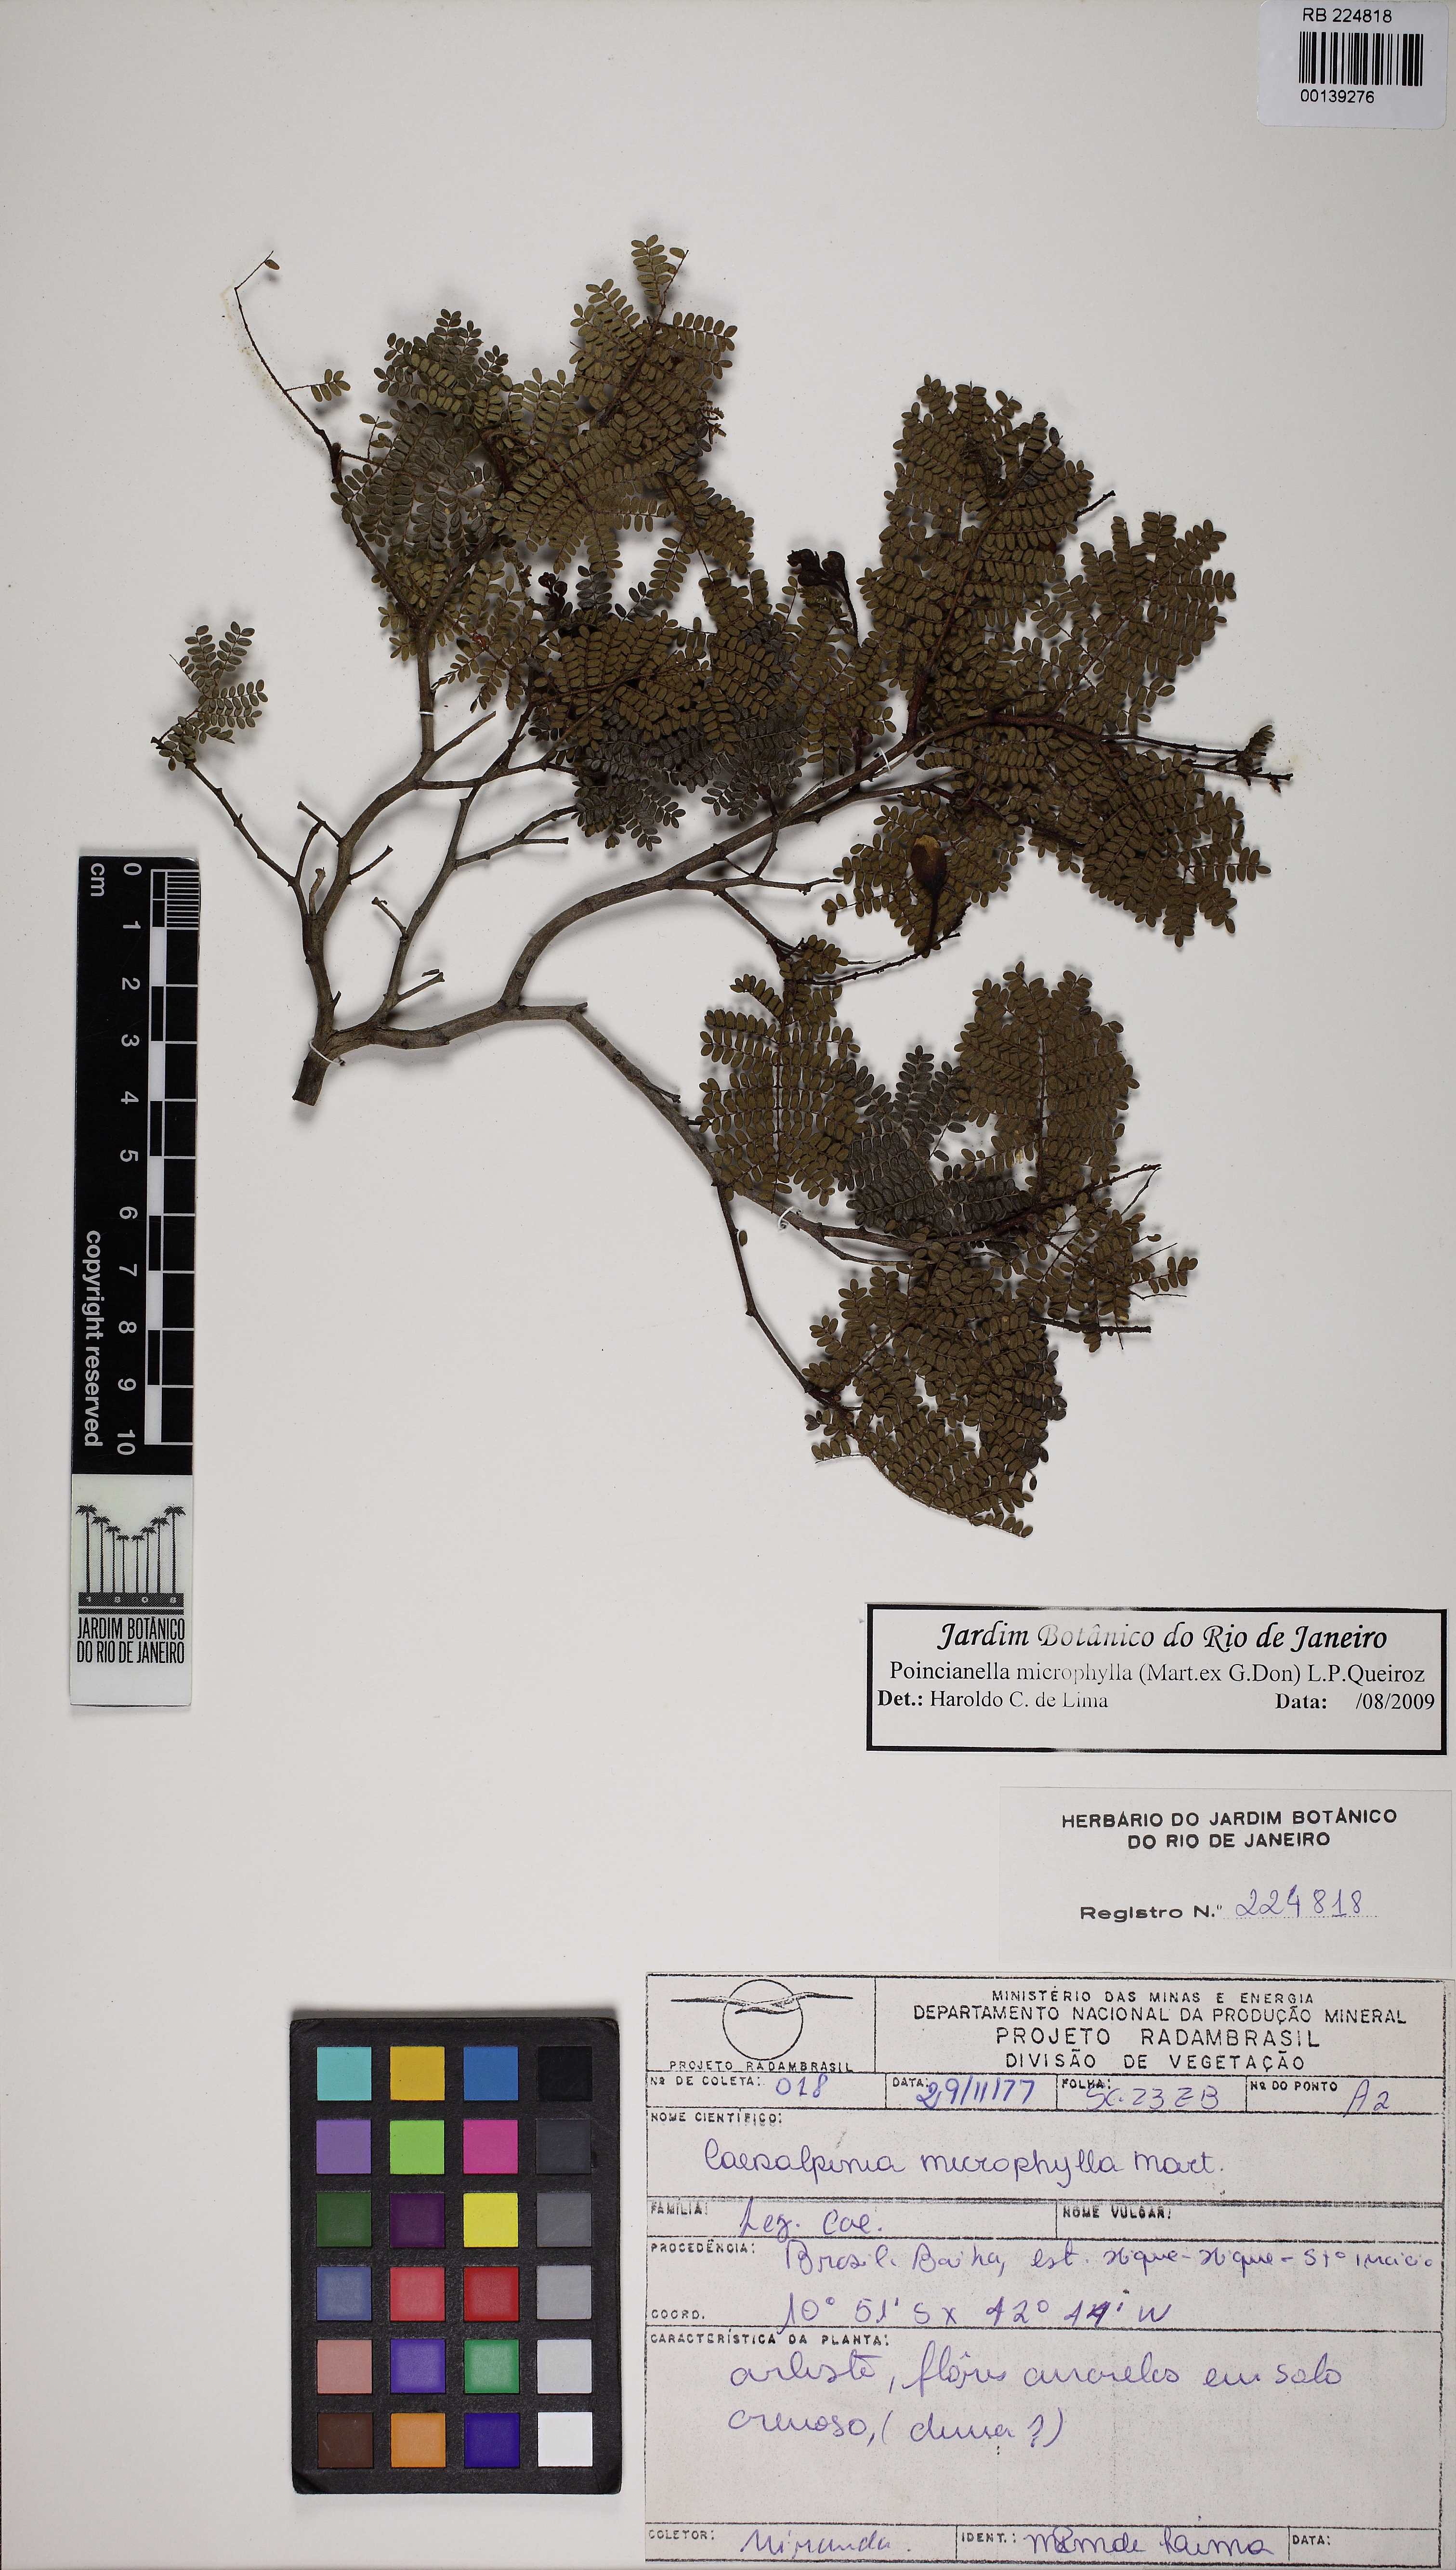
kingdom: Plantae
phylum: Tracheophyta
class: Magnoliopsida
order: Fabales
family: Fabaceae
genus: Cenostigma
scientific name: Cenostigma microphyllum
